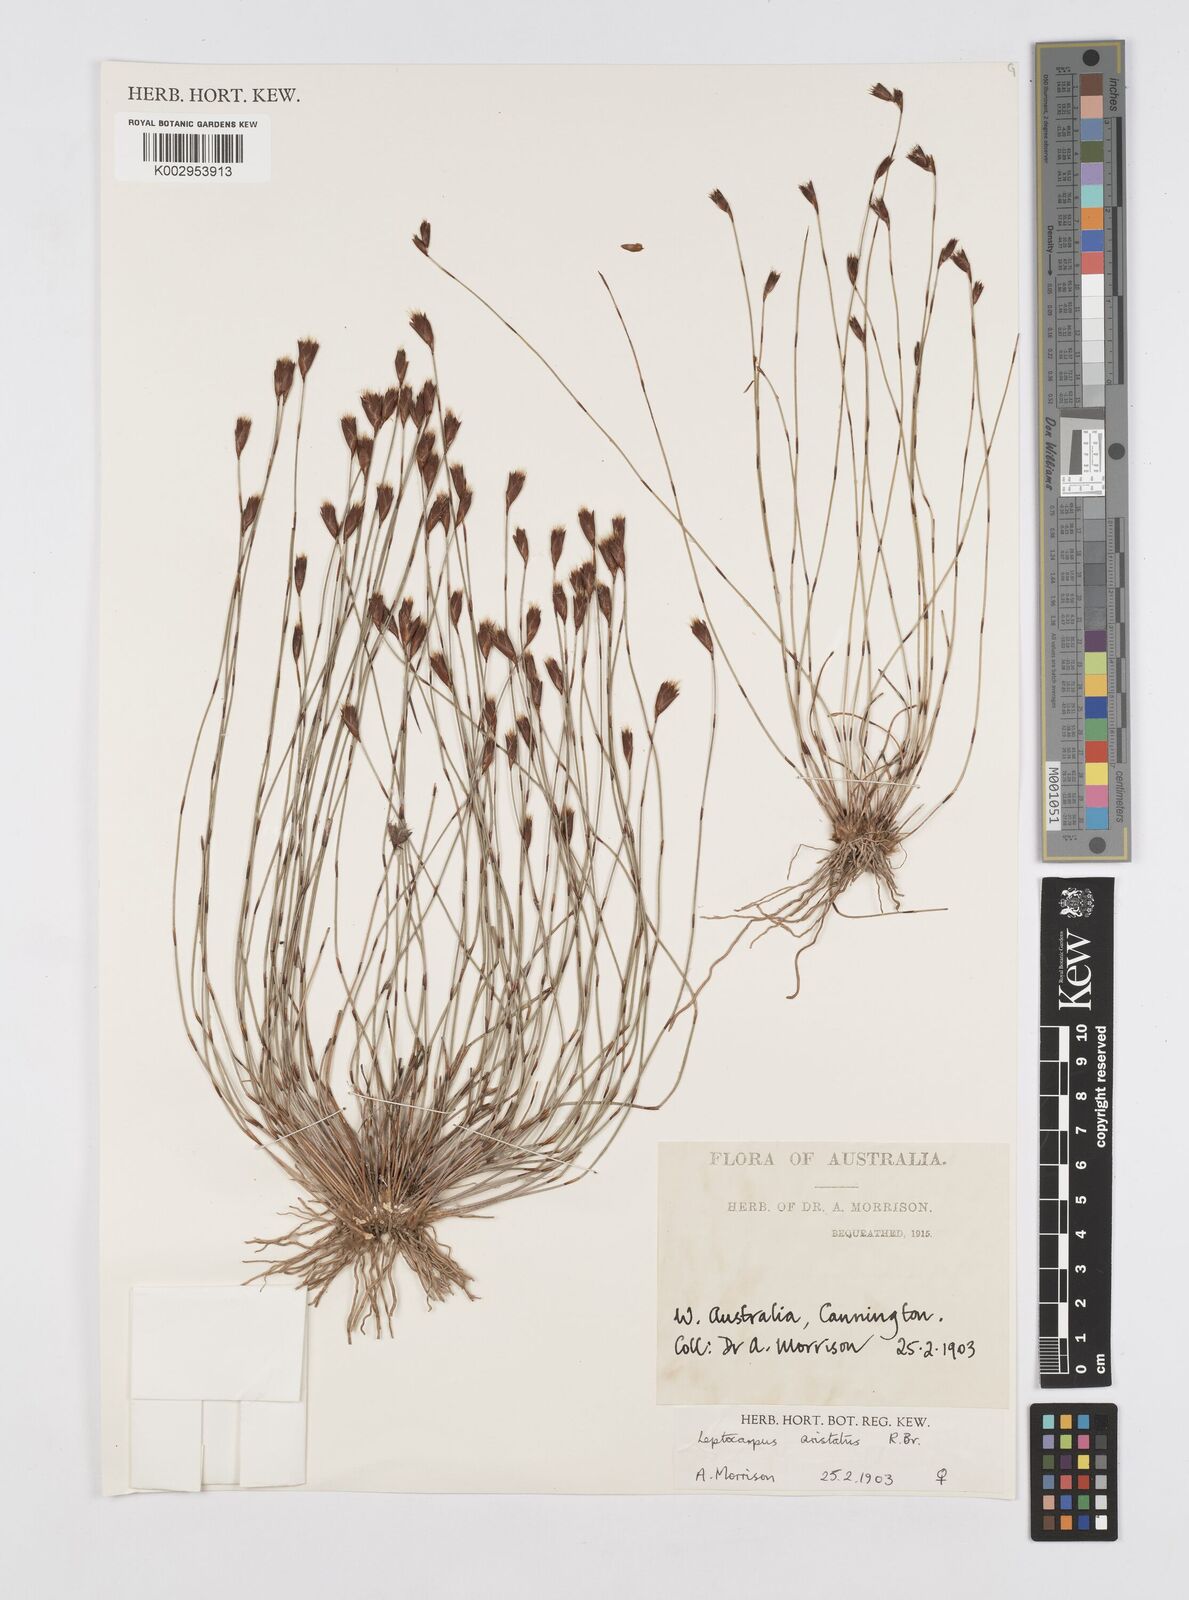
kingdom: Plantae
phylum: Tracheophyta
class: Liliopsida
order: Poales
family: Restionaceae
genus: Chaetanthus
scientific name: Chaetanthus aristatus
